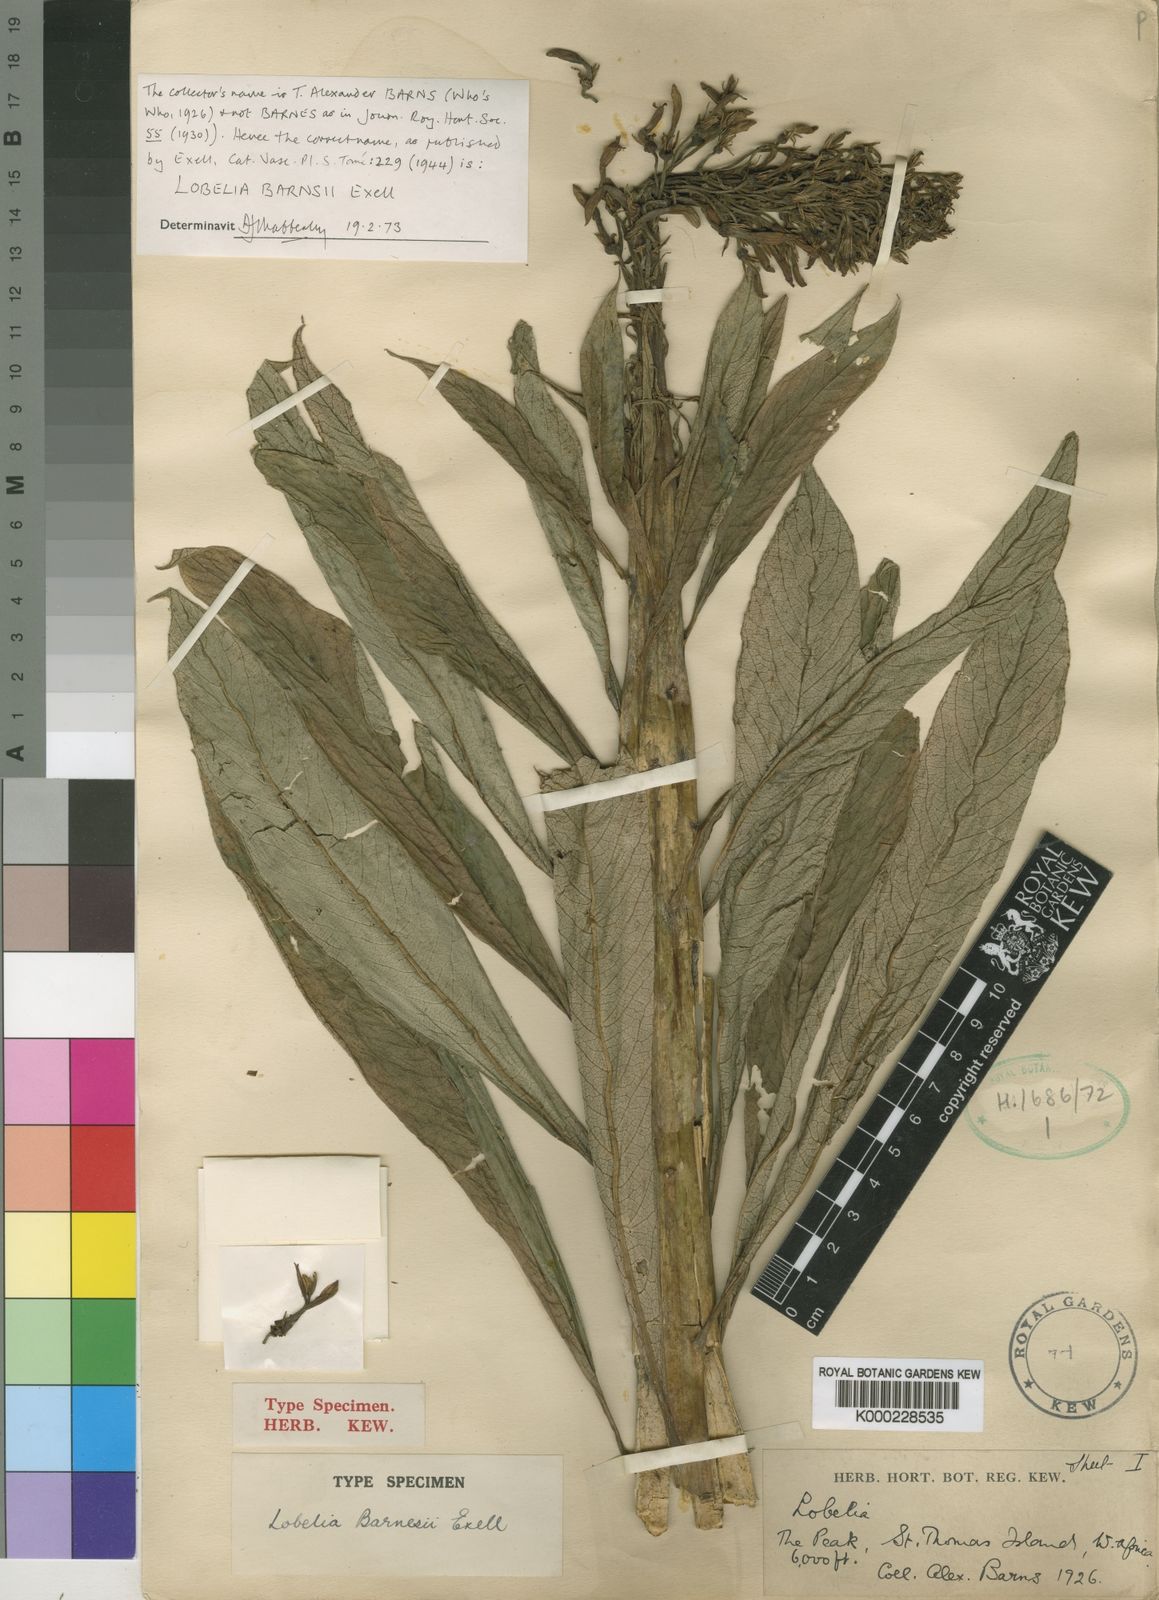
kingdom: Plantae
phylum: Tracheophyta
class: Magnoliopsida
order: Asterales
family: Campanulaceae
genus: Lobelia
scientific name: Lobelia barnsii
